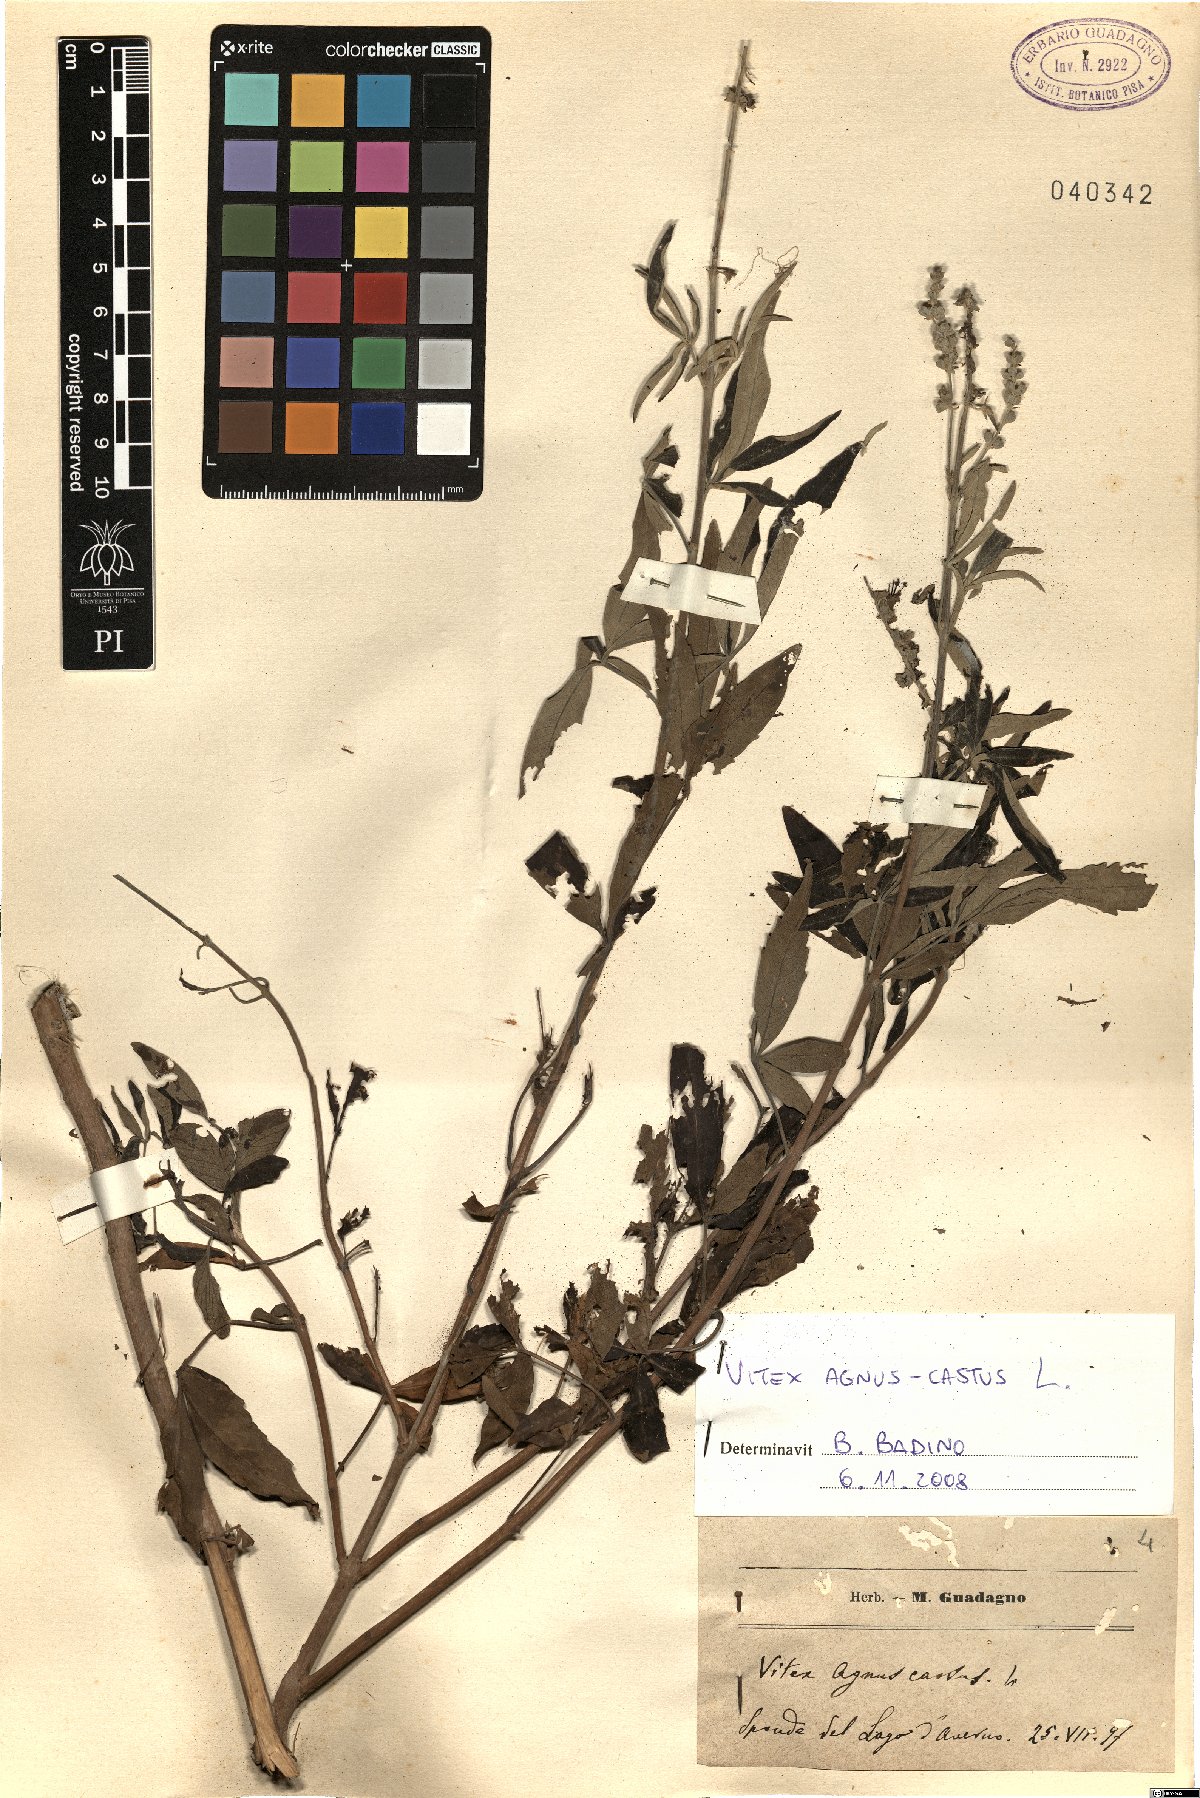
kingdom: Plantae
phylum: Tracheophyta
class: Magnoliopsida
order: Lamiales
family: Lamiaceae
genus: Vitex
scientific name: Vitex agnus-castus
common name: Chasteberry
